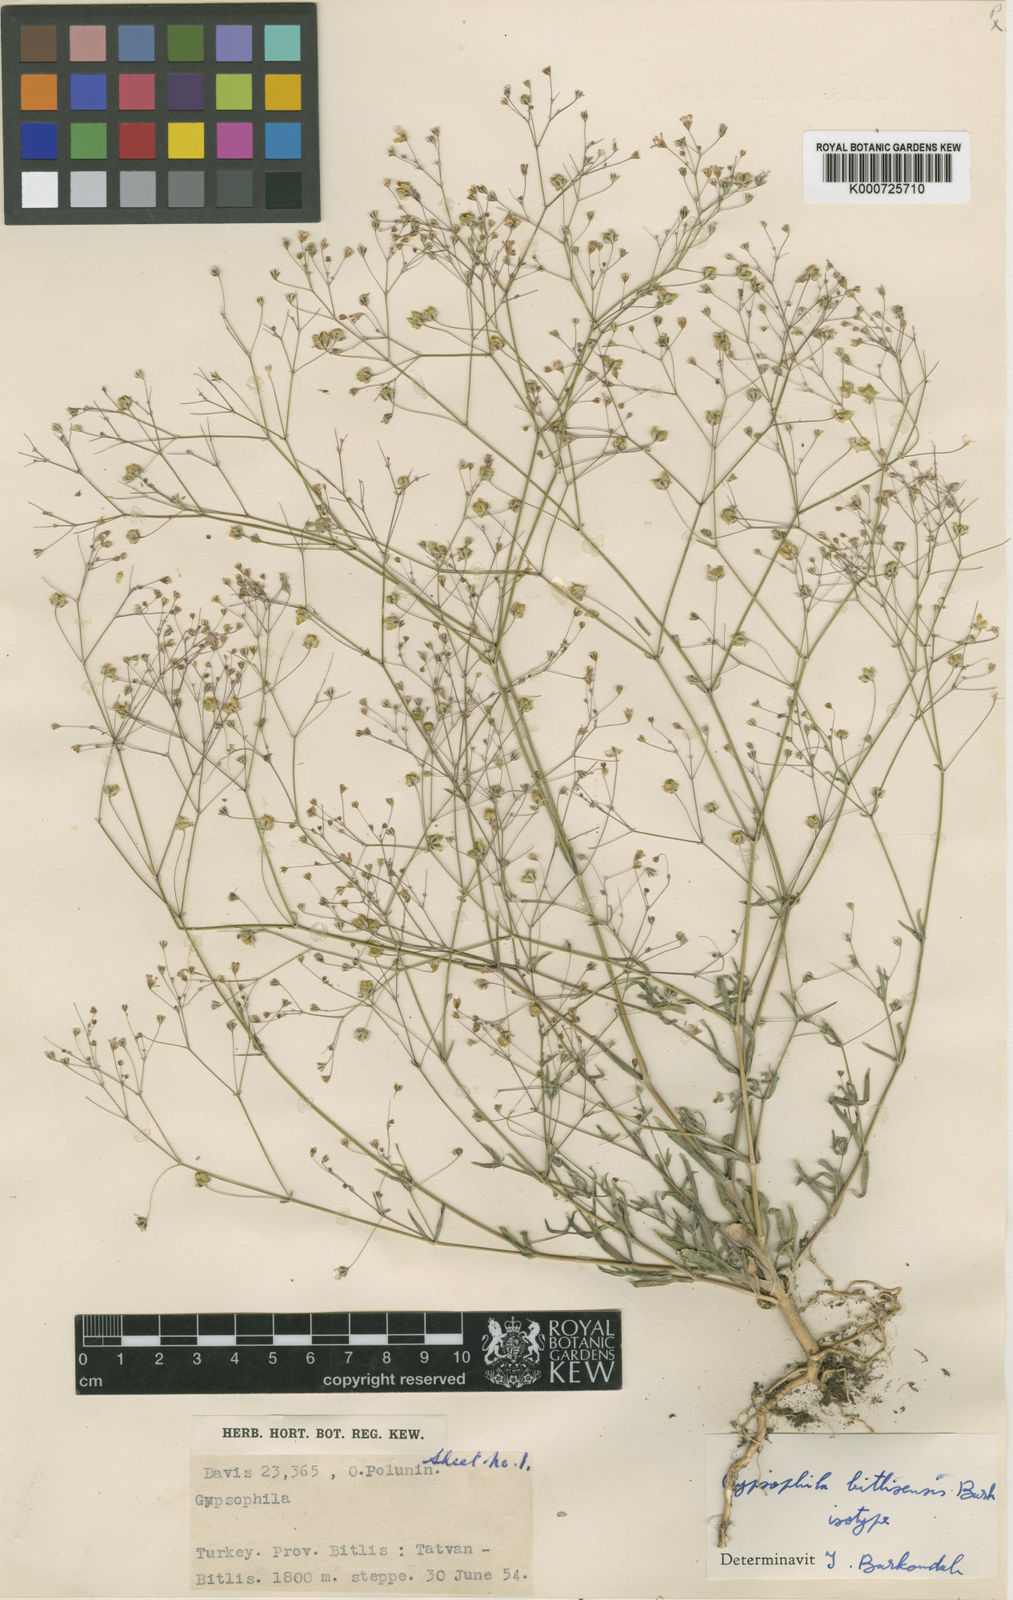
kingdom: Plantae
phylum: Tracheophyta
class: Magnoliopsida
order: Caryophyllales
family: Caryophyllaceae
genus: Gypsophila
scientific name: Gypsophila bitlisensis
